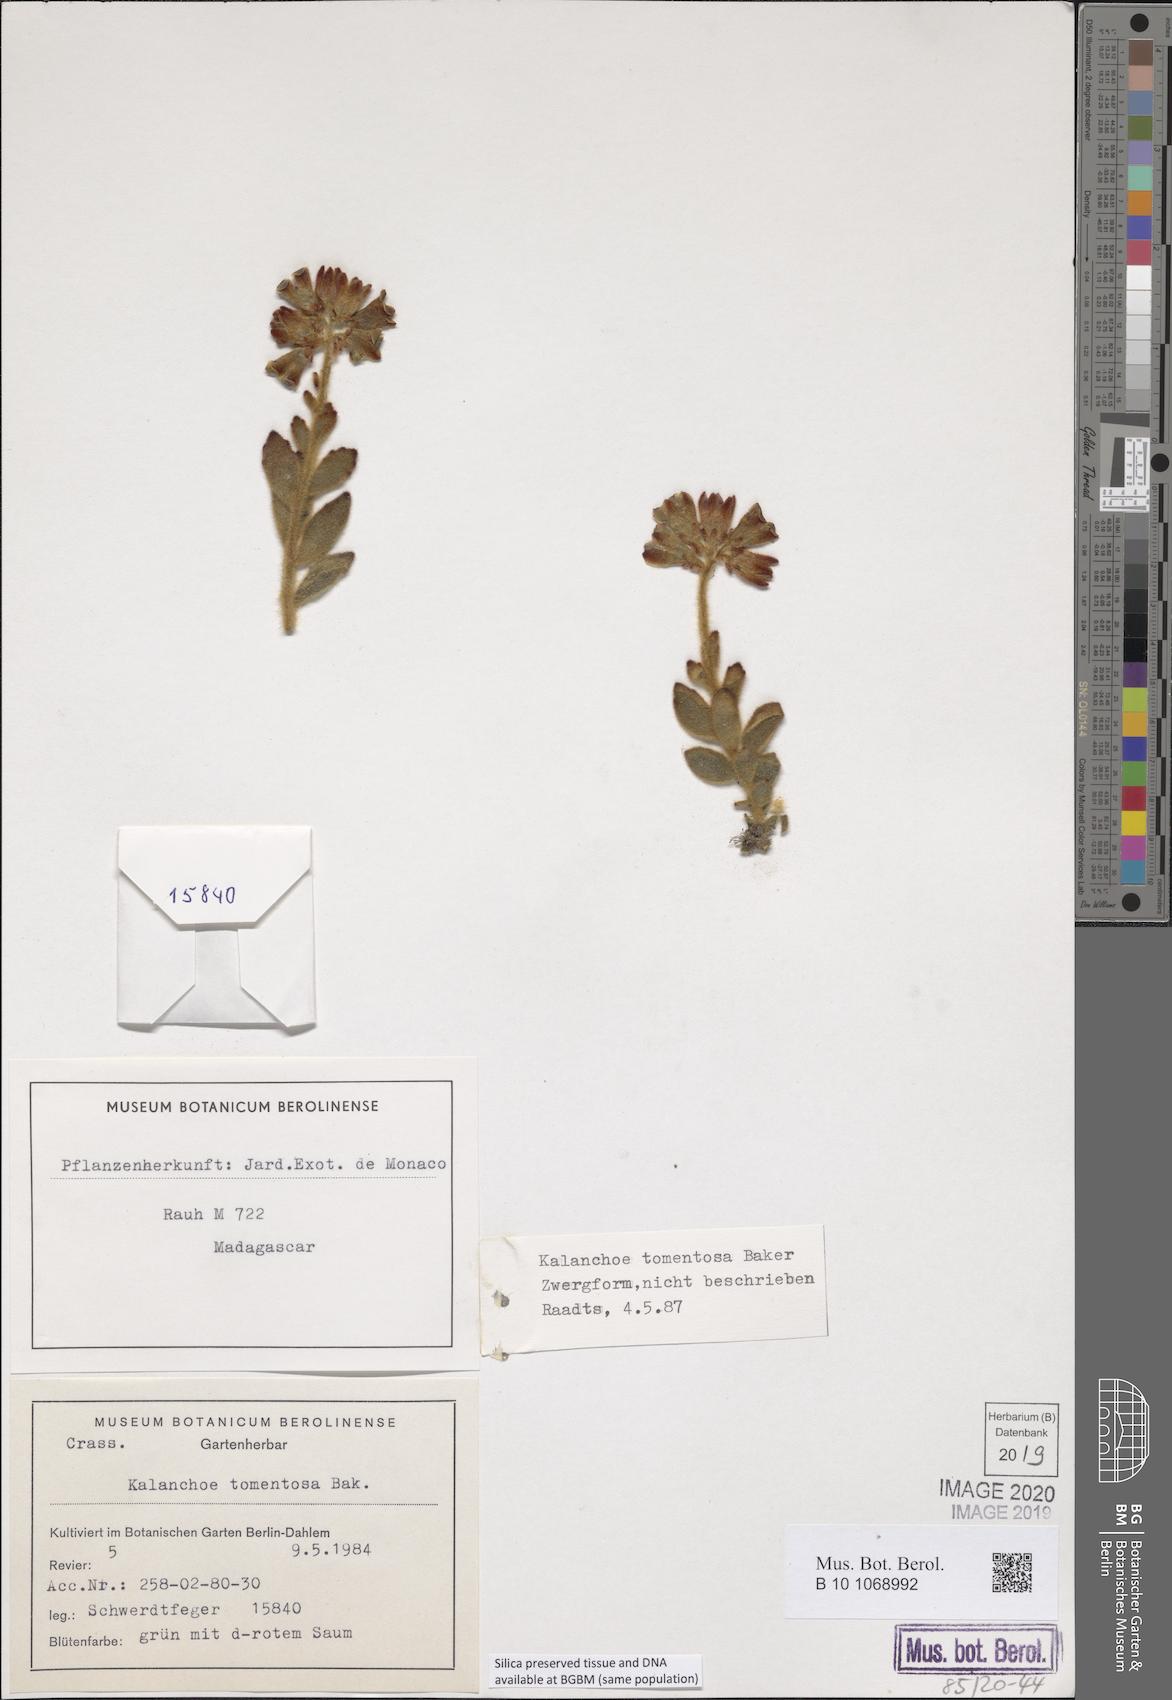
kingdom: Plantae
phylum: Tracheophyta
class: Magnoliopsida
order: Saxifragales
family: Crassulaceae
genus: Kalanchoe
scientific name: Kalanchoe tomentosa
